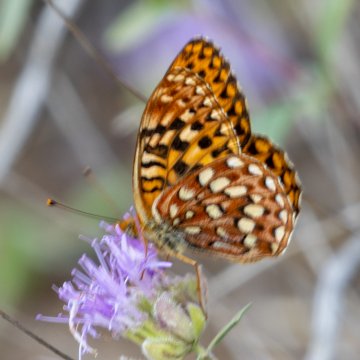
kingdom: Animalia
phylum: Arthropoda
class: Insecta
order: Lepidoptera
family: Nymphalidae
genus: Speyeria
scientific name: Speyeria zerene
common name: Zerene Fritillary
